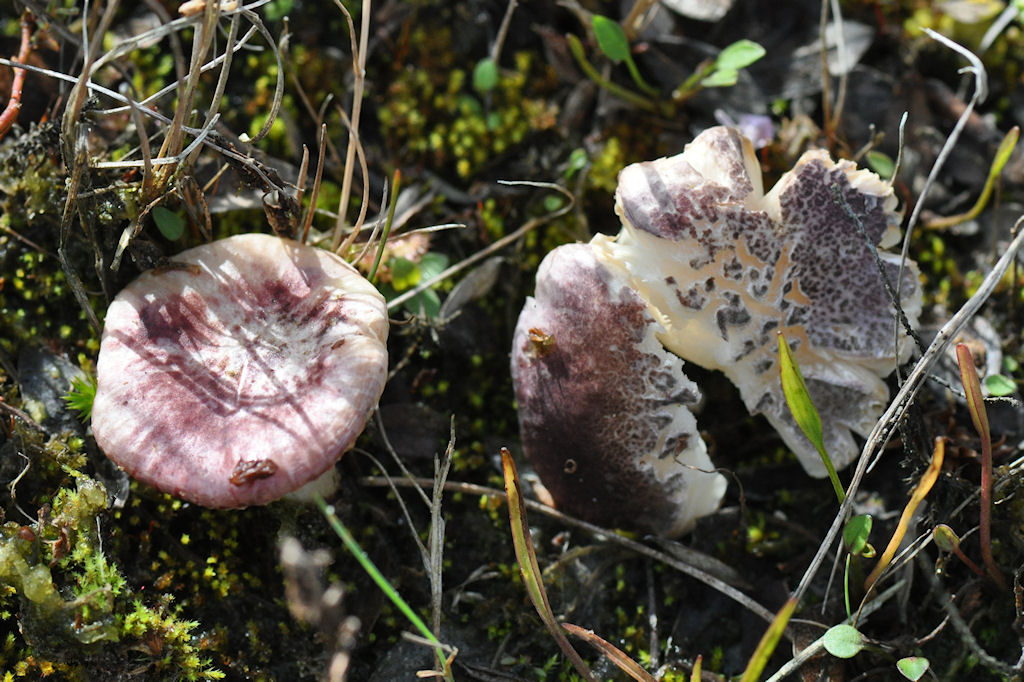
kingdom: Fungi
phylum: Basidiomycota
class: Agaricomycetes
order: Russulales
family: Russulaceae
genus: Russula
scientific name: Russula laccata
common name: klit-skørhat
